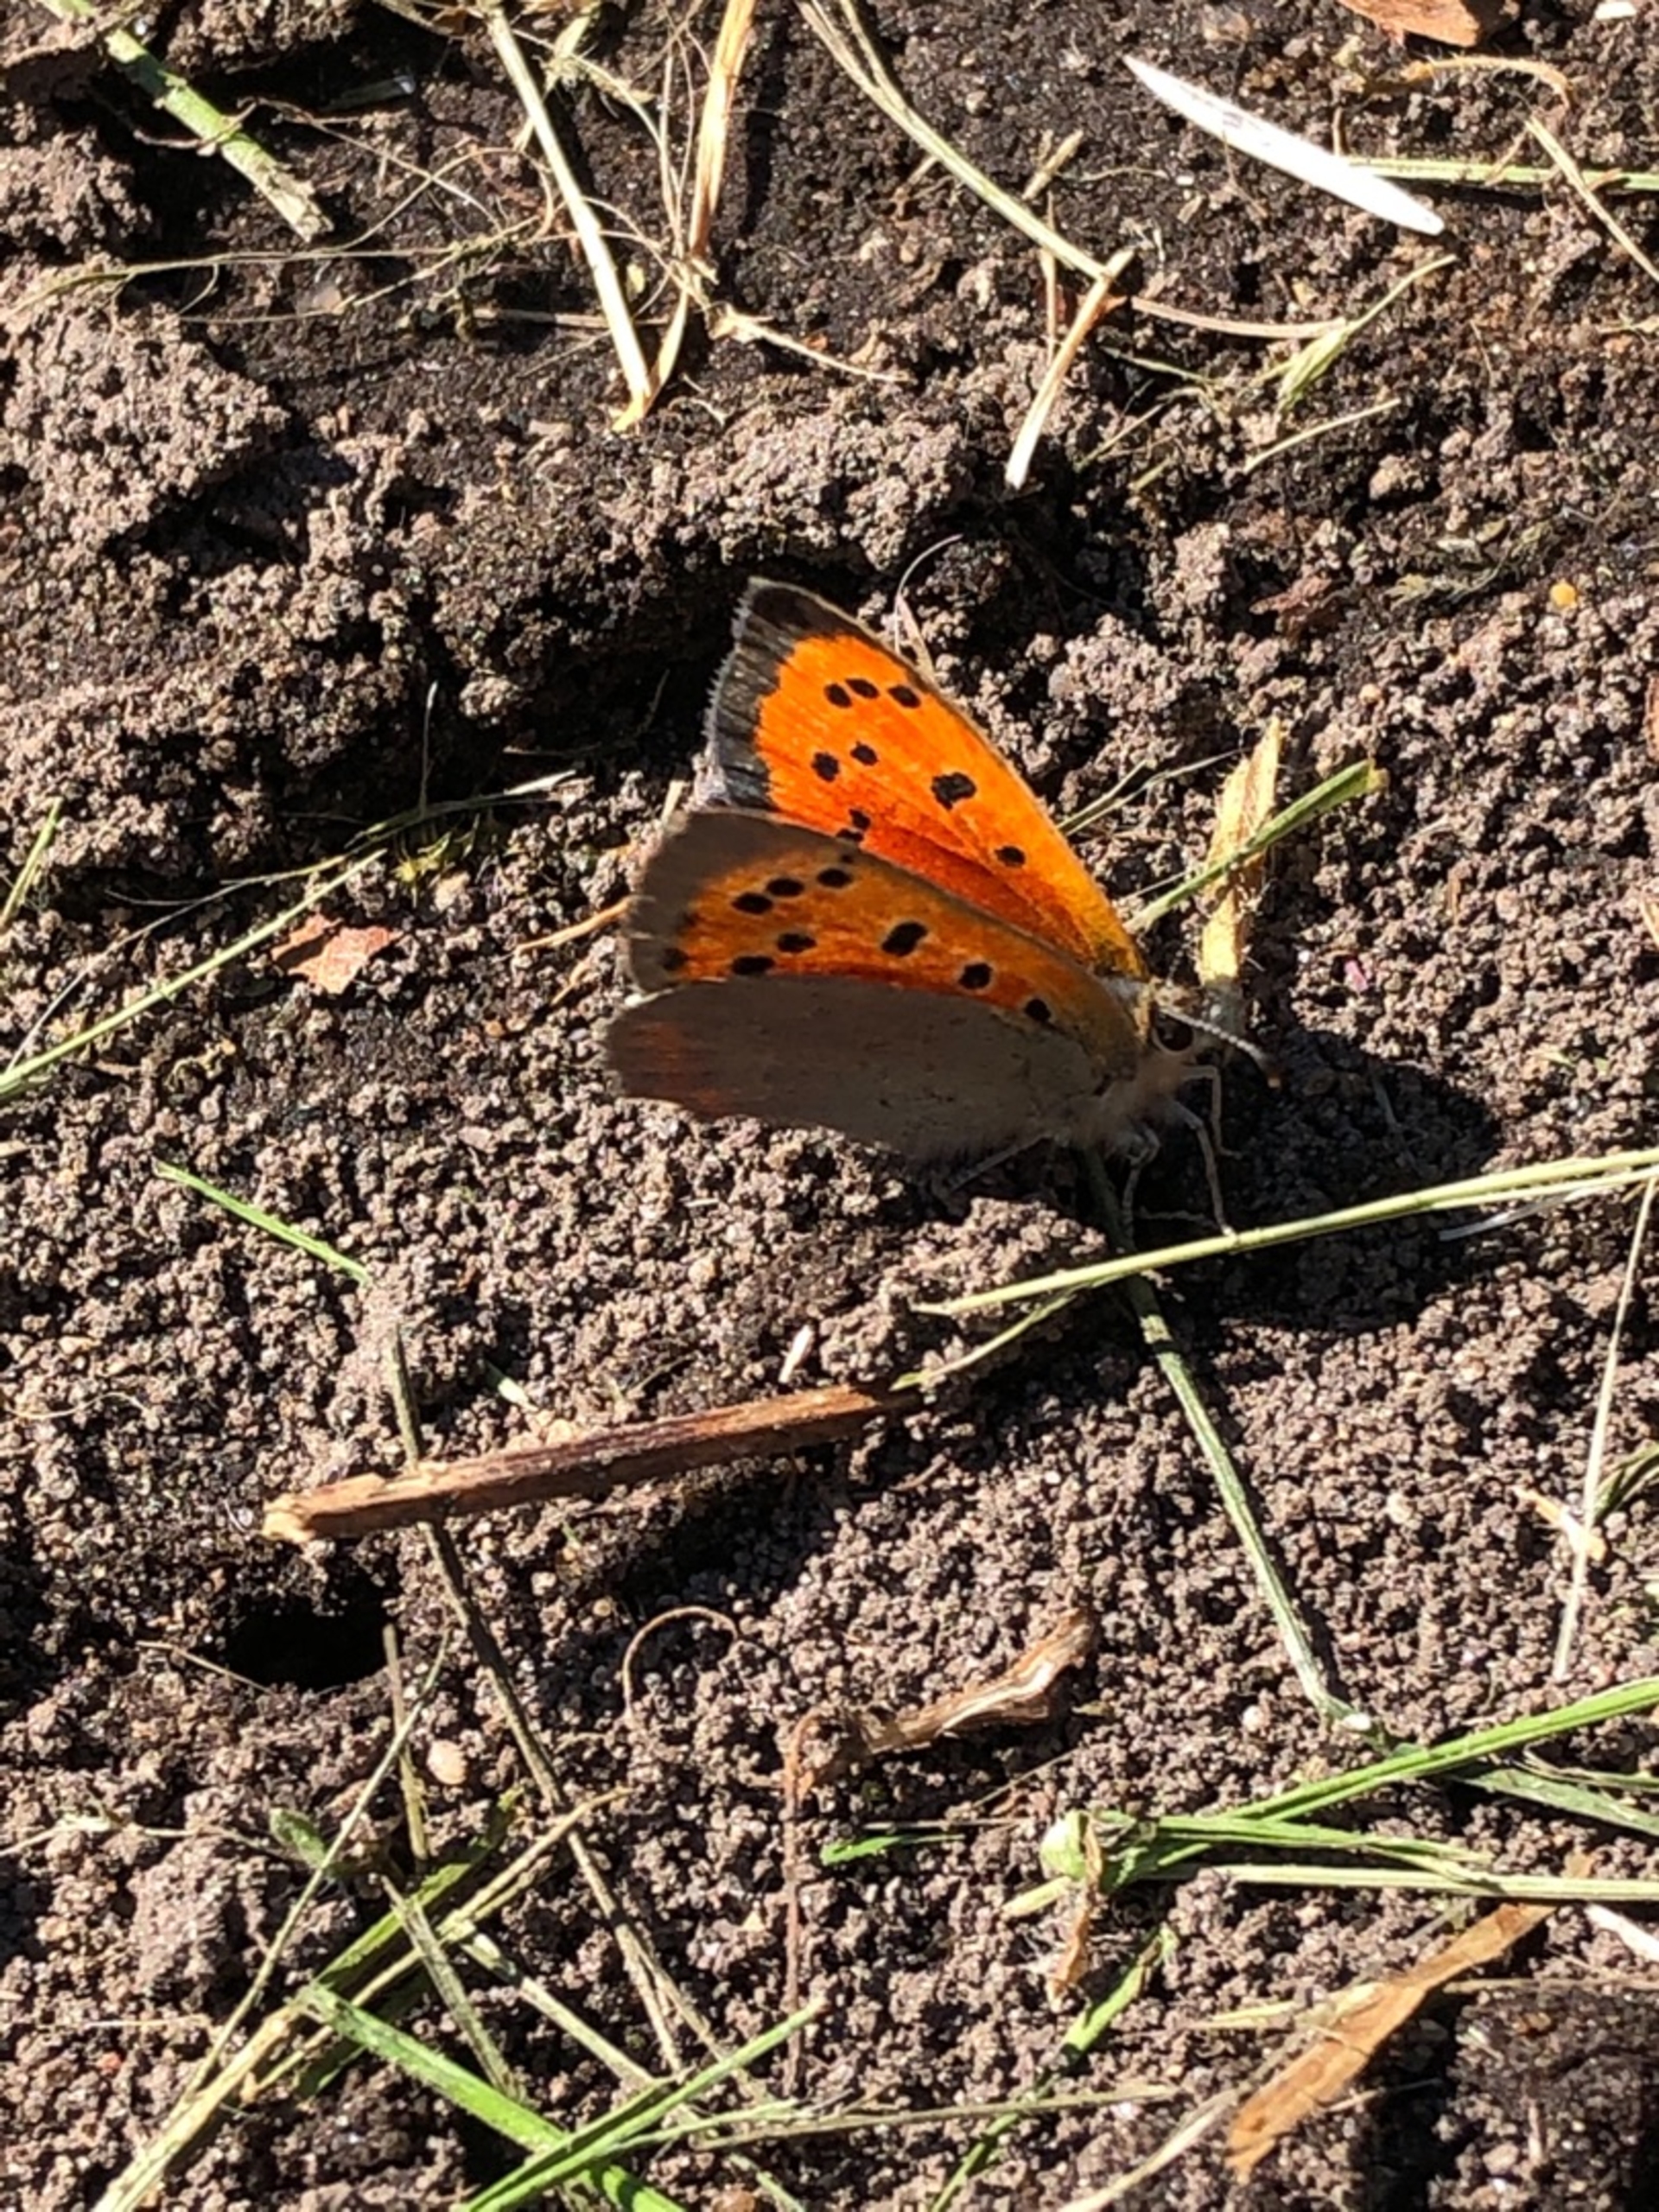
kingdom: Animalia
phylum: Arthropoda
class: Insecta
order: Lepidoptera
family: Lycaenidae
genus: Lycaena
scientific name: Lycaena phlaeas
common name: Lille ildfugl
